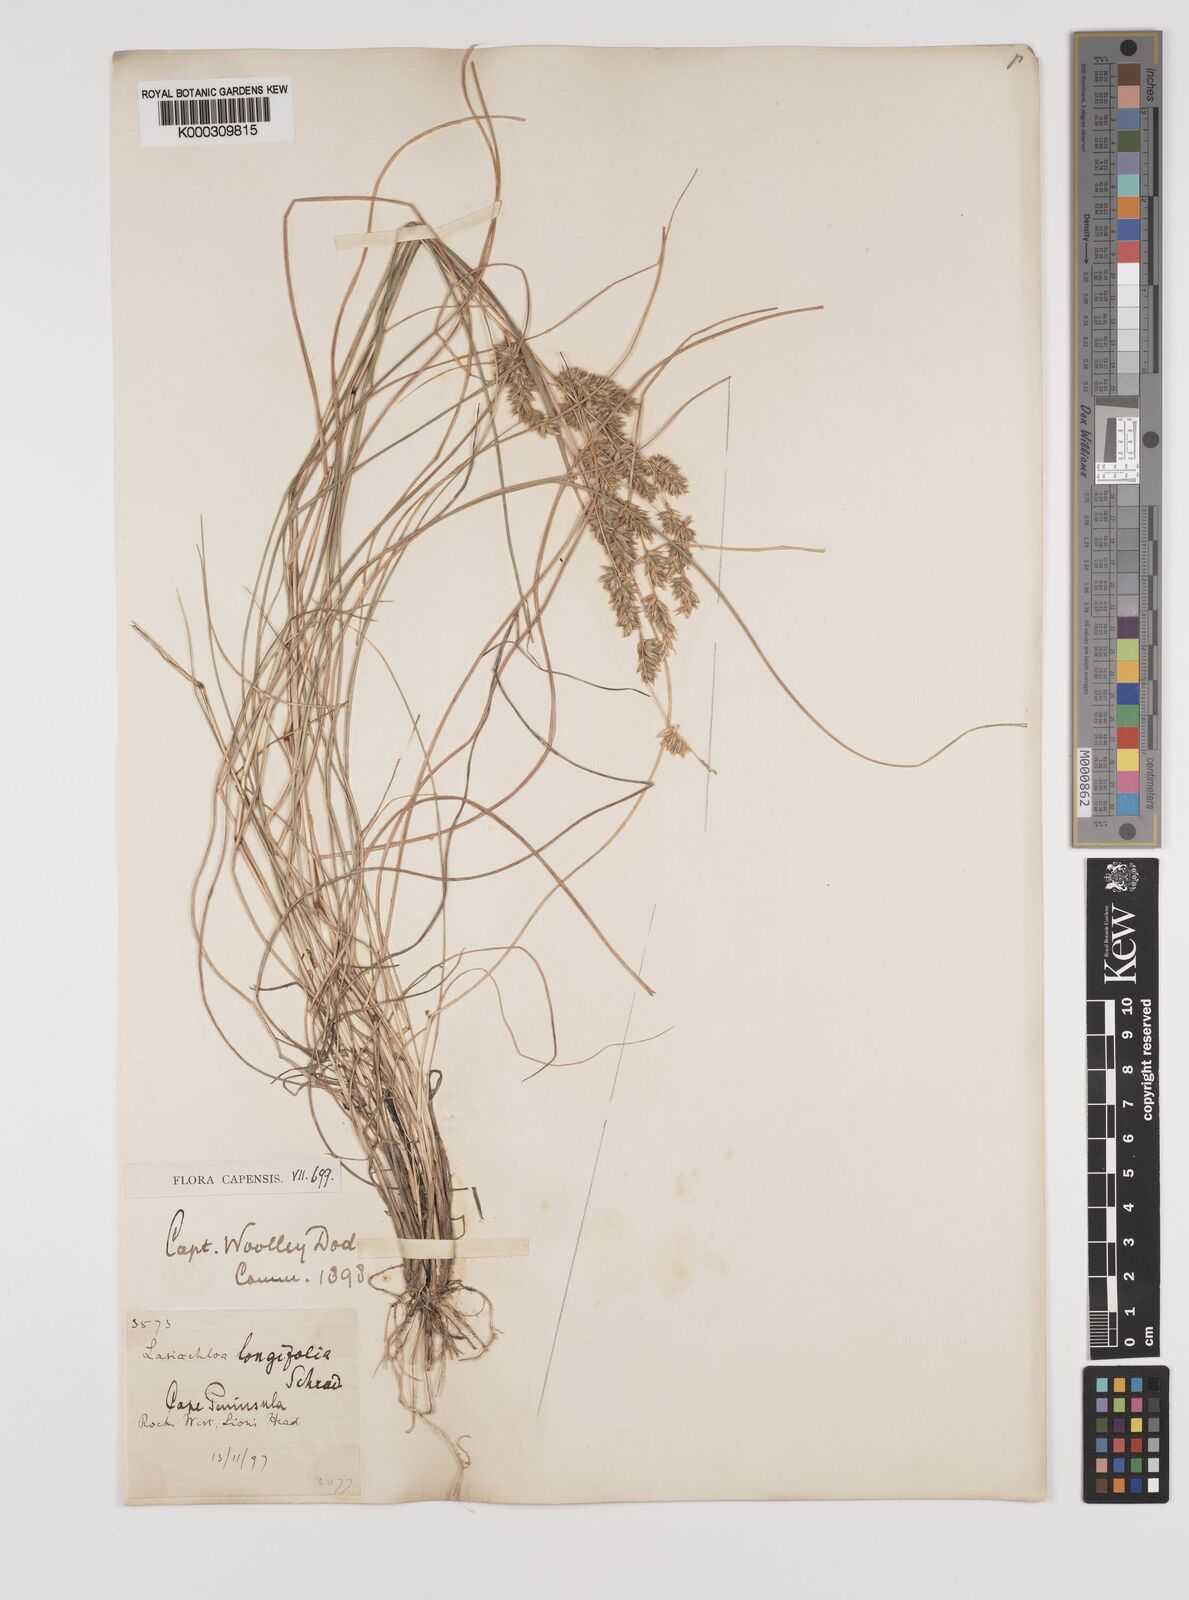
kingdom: Plantae
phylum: Tracheophyta
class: Liliopsida
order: Poales
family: Poaceae
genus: Tribolium
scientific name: Tribolium hispidum
